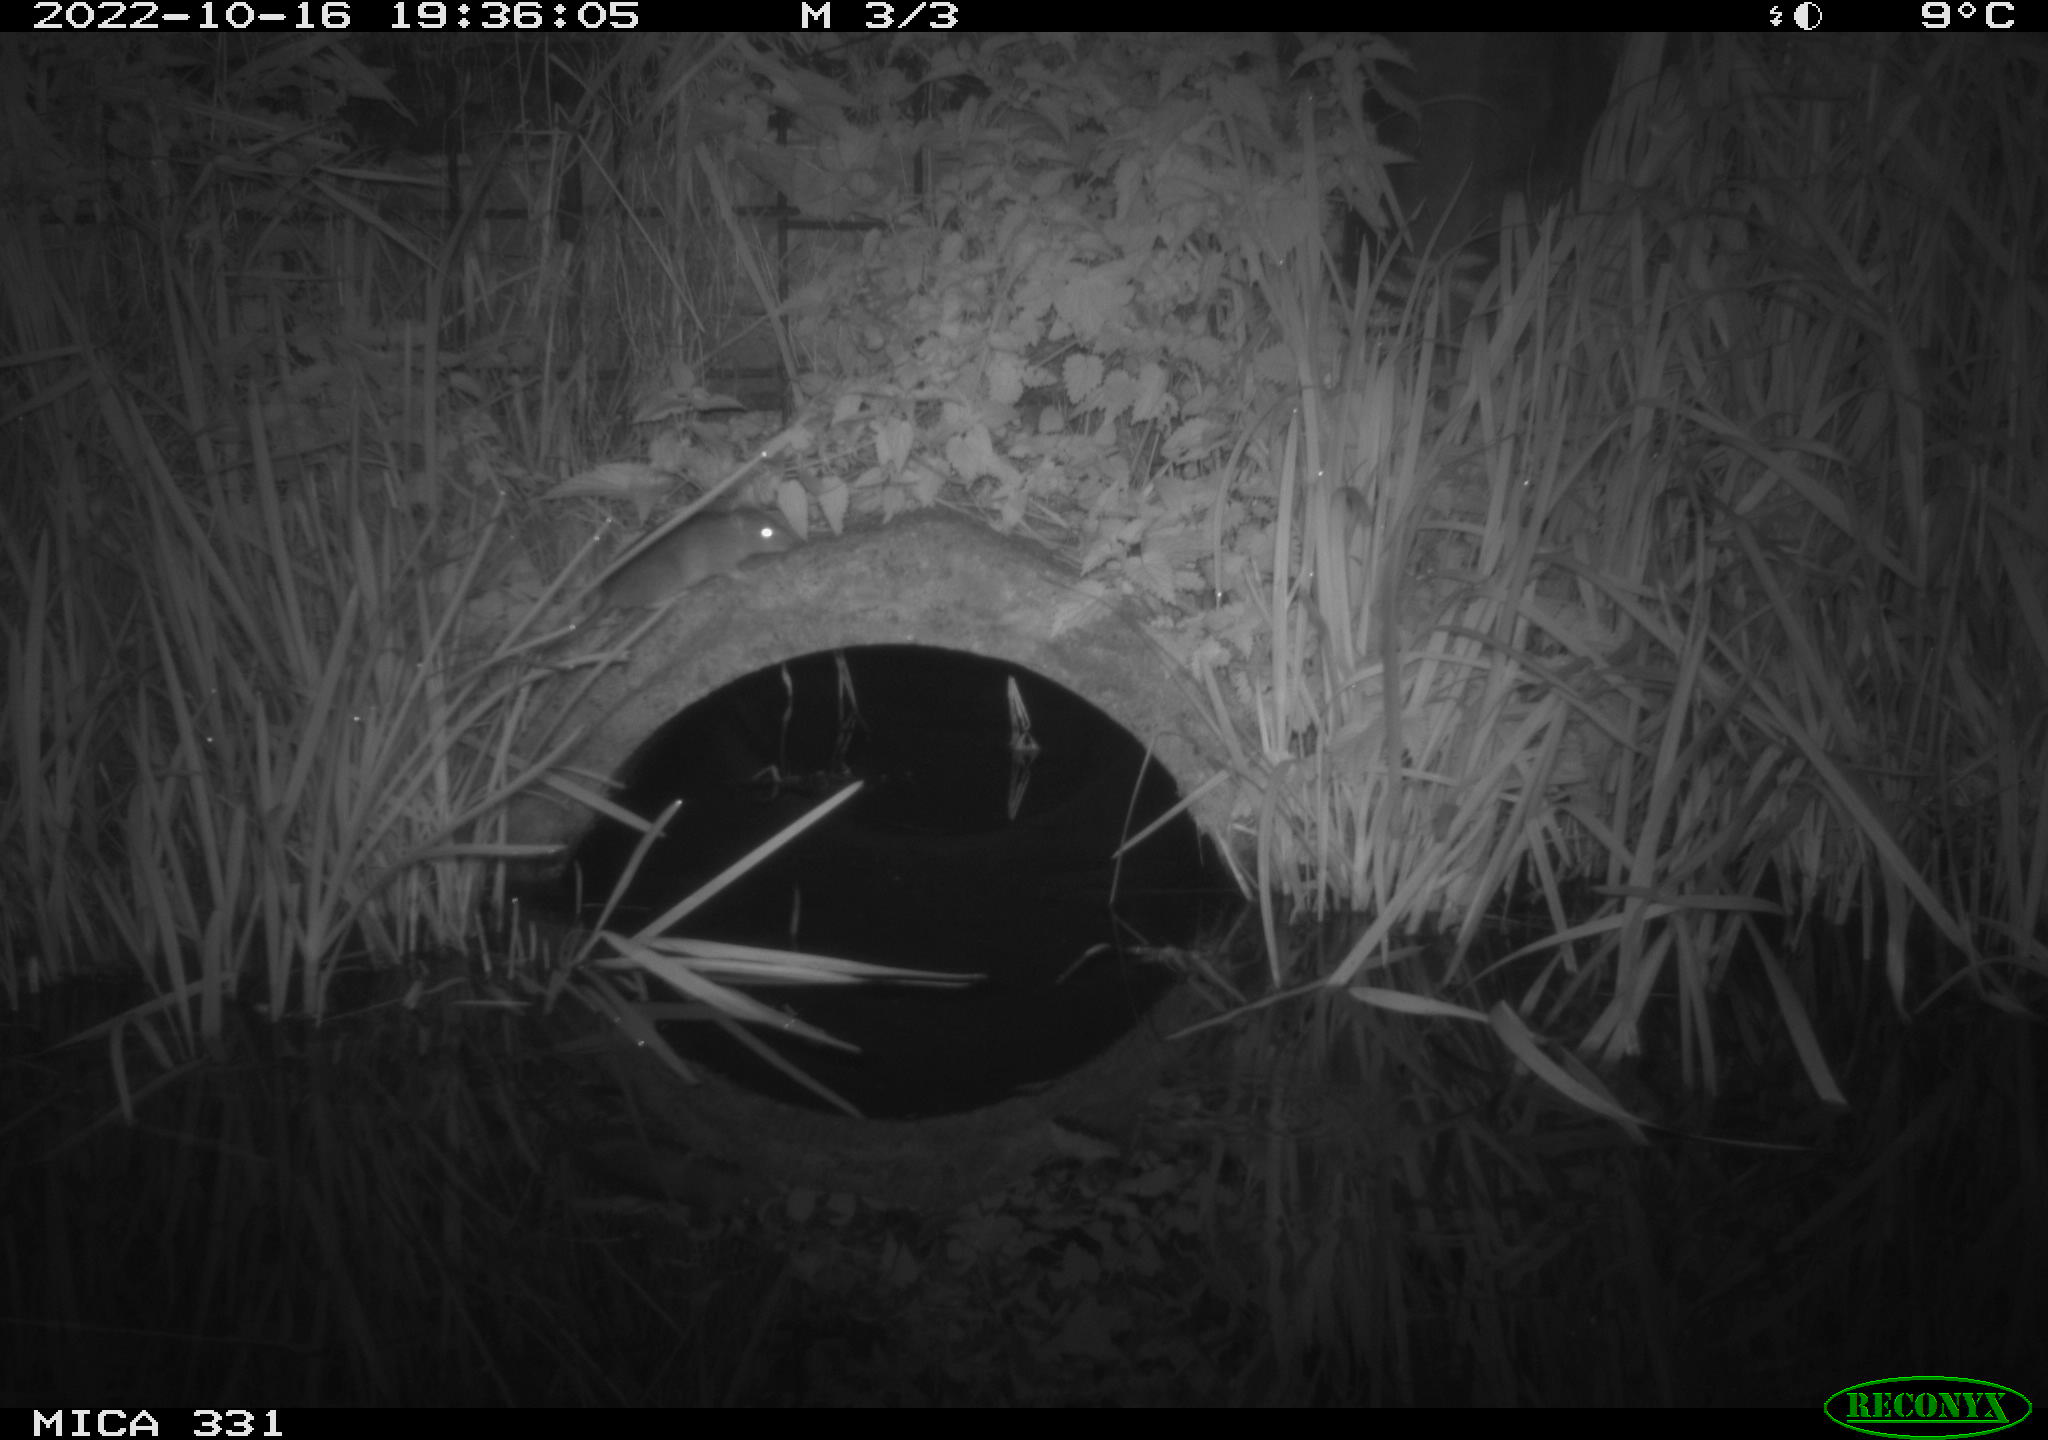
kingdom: Animalia
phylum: Chordata
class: Mammalia
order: Rodentia
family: Muridae
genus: Rattus
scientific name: Rattus norvegicus
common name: Brown rat
